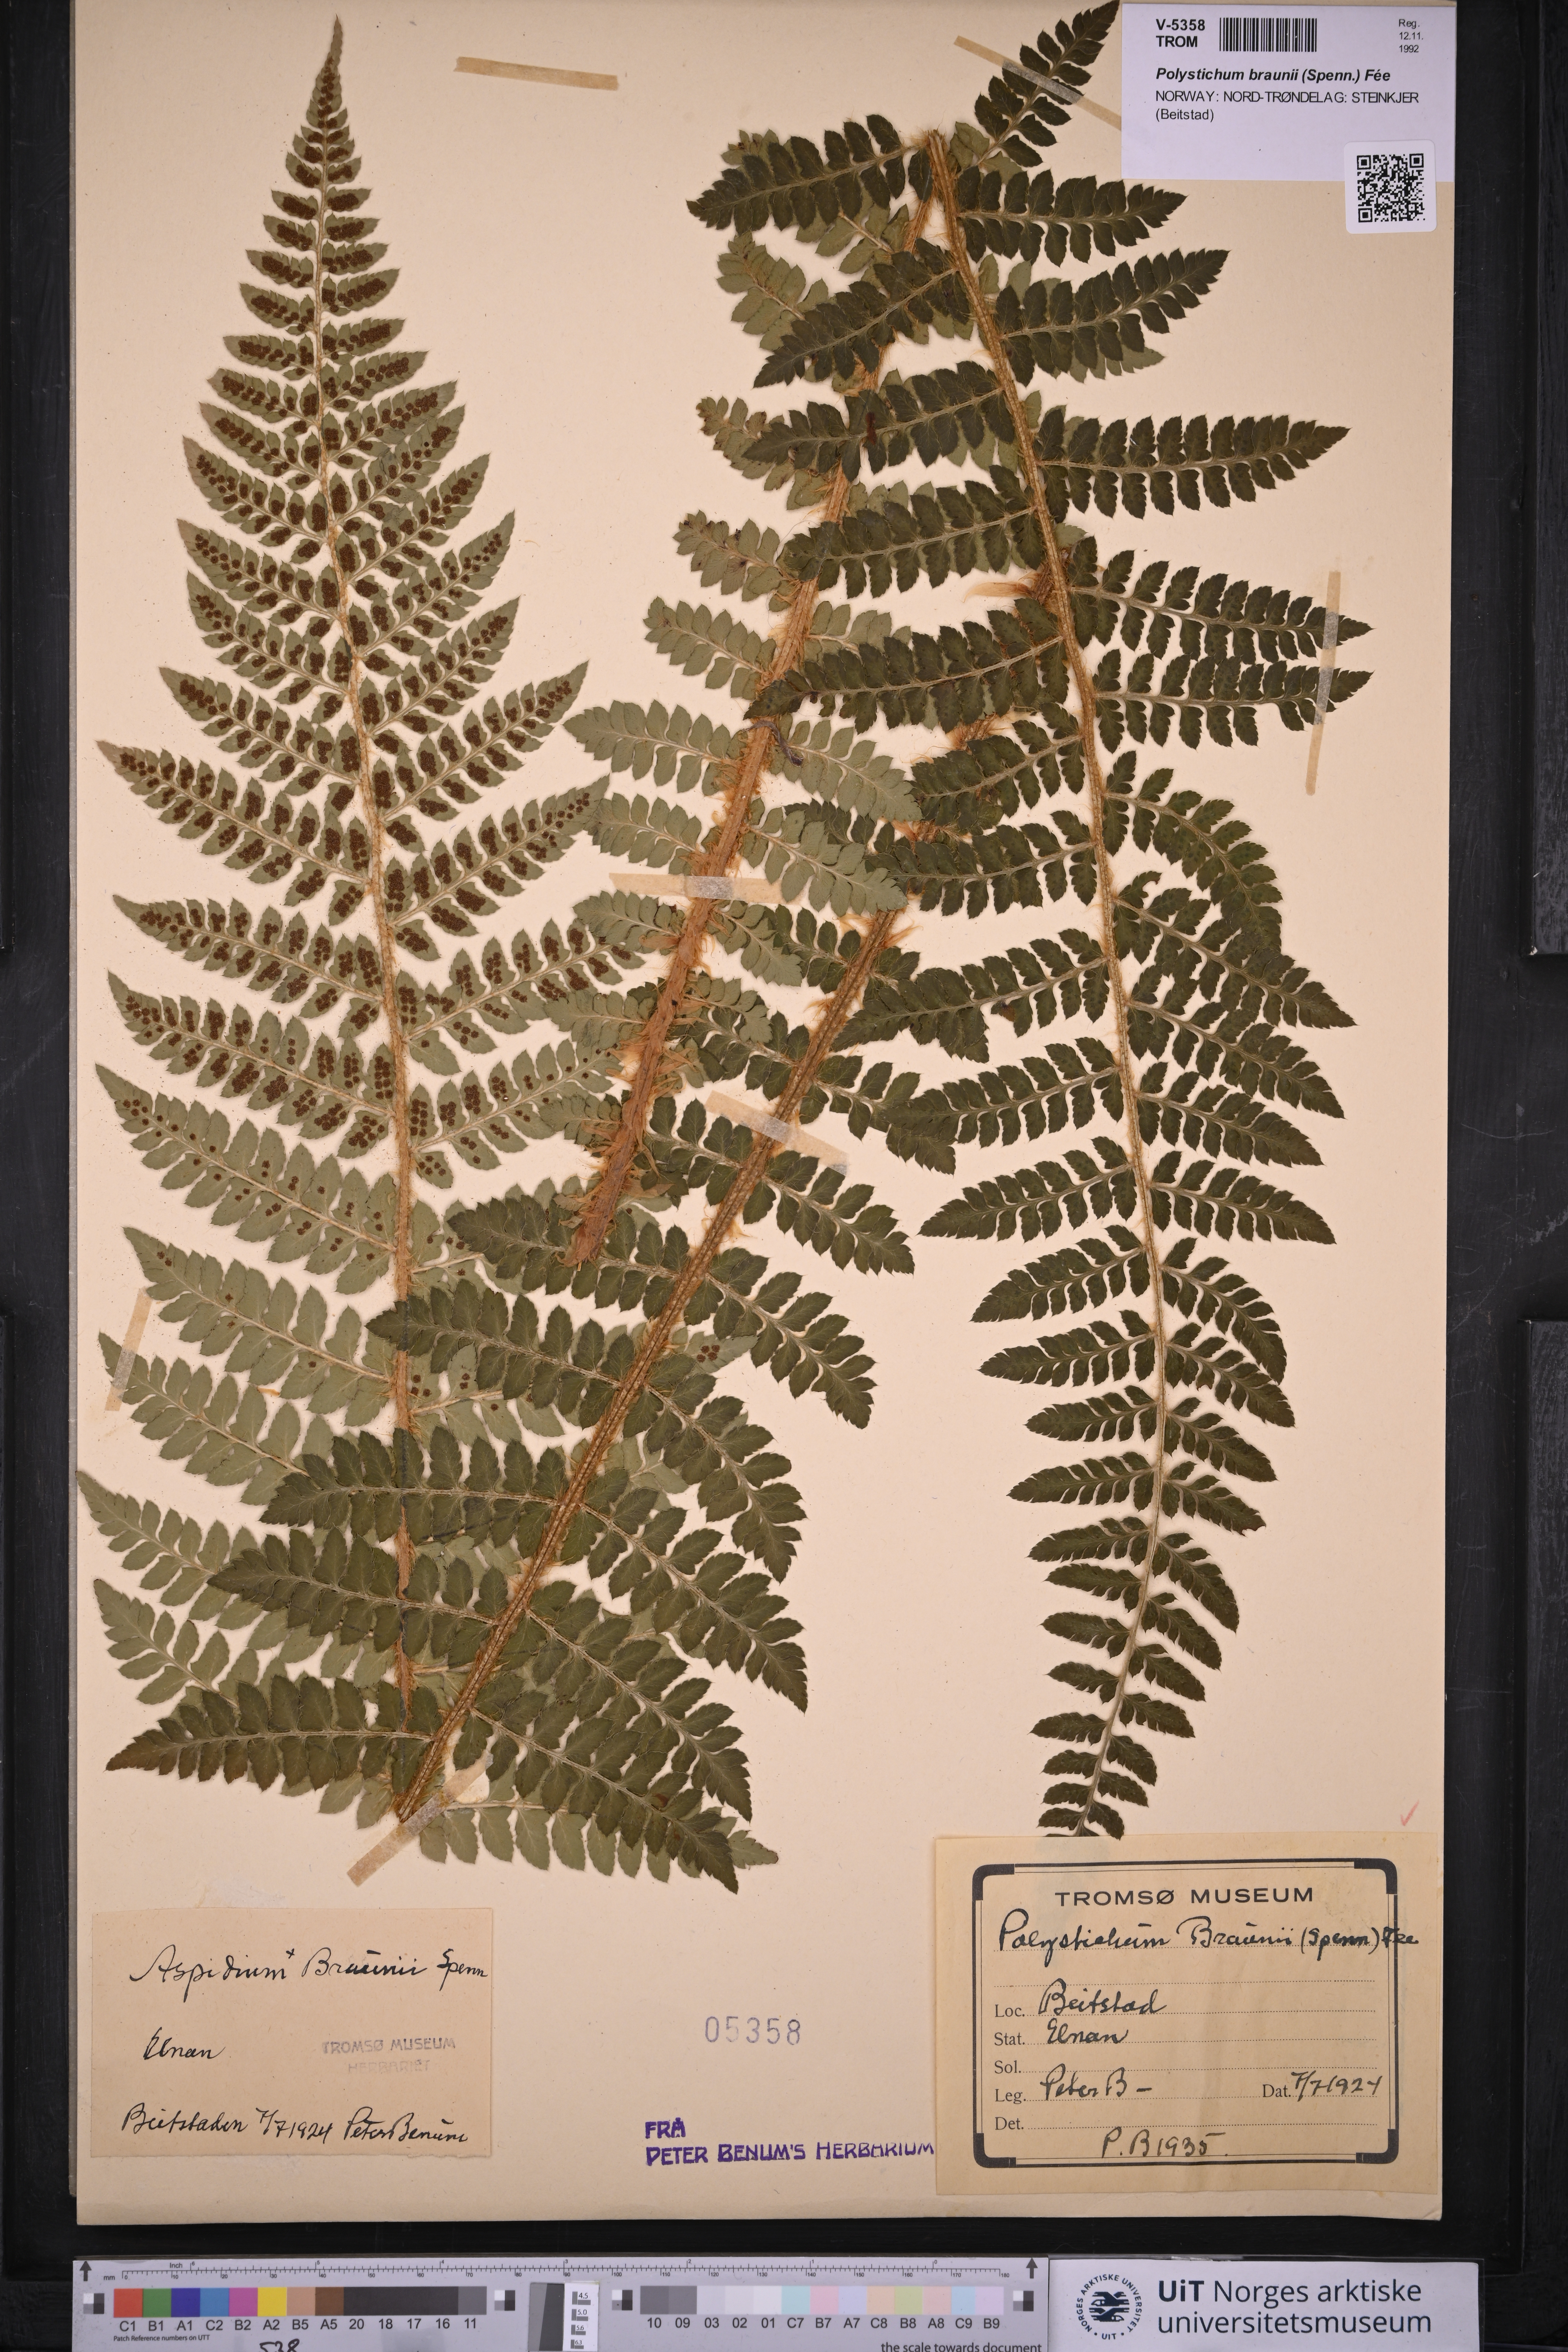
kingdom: Plantae
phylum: Tracheophyta
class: Polypodiopsida
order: Polypodiales
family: Dryopteridaceae
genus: Polystichum
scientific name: Polystichum braunii
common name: Braun's holly fern
